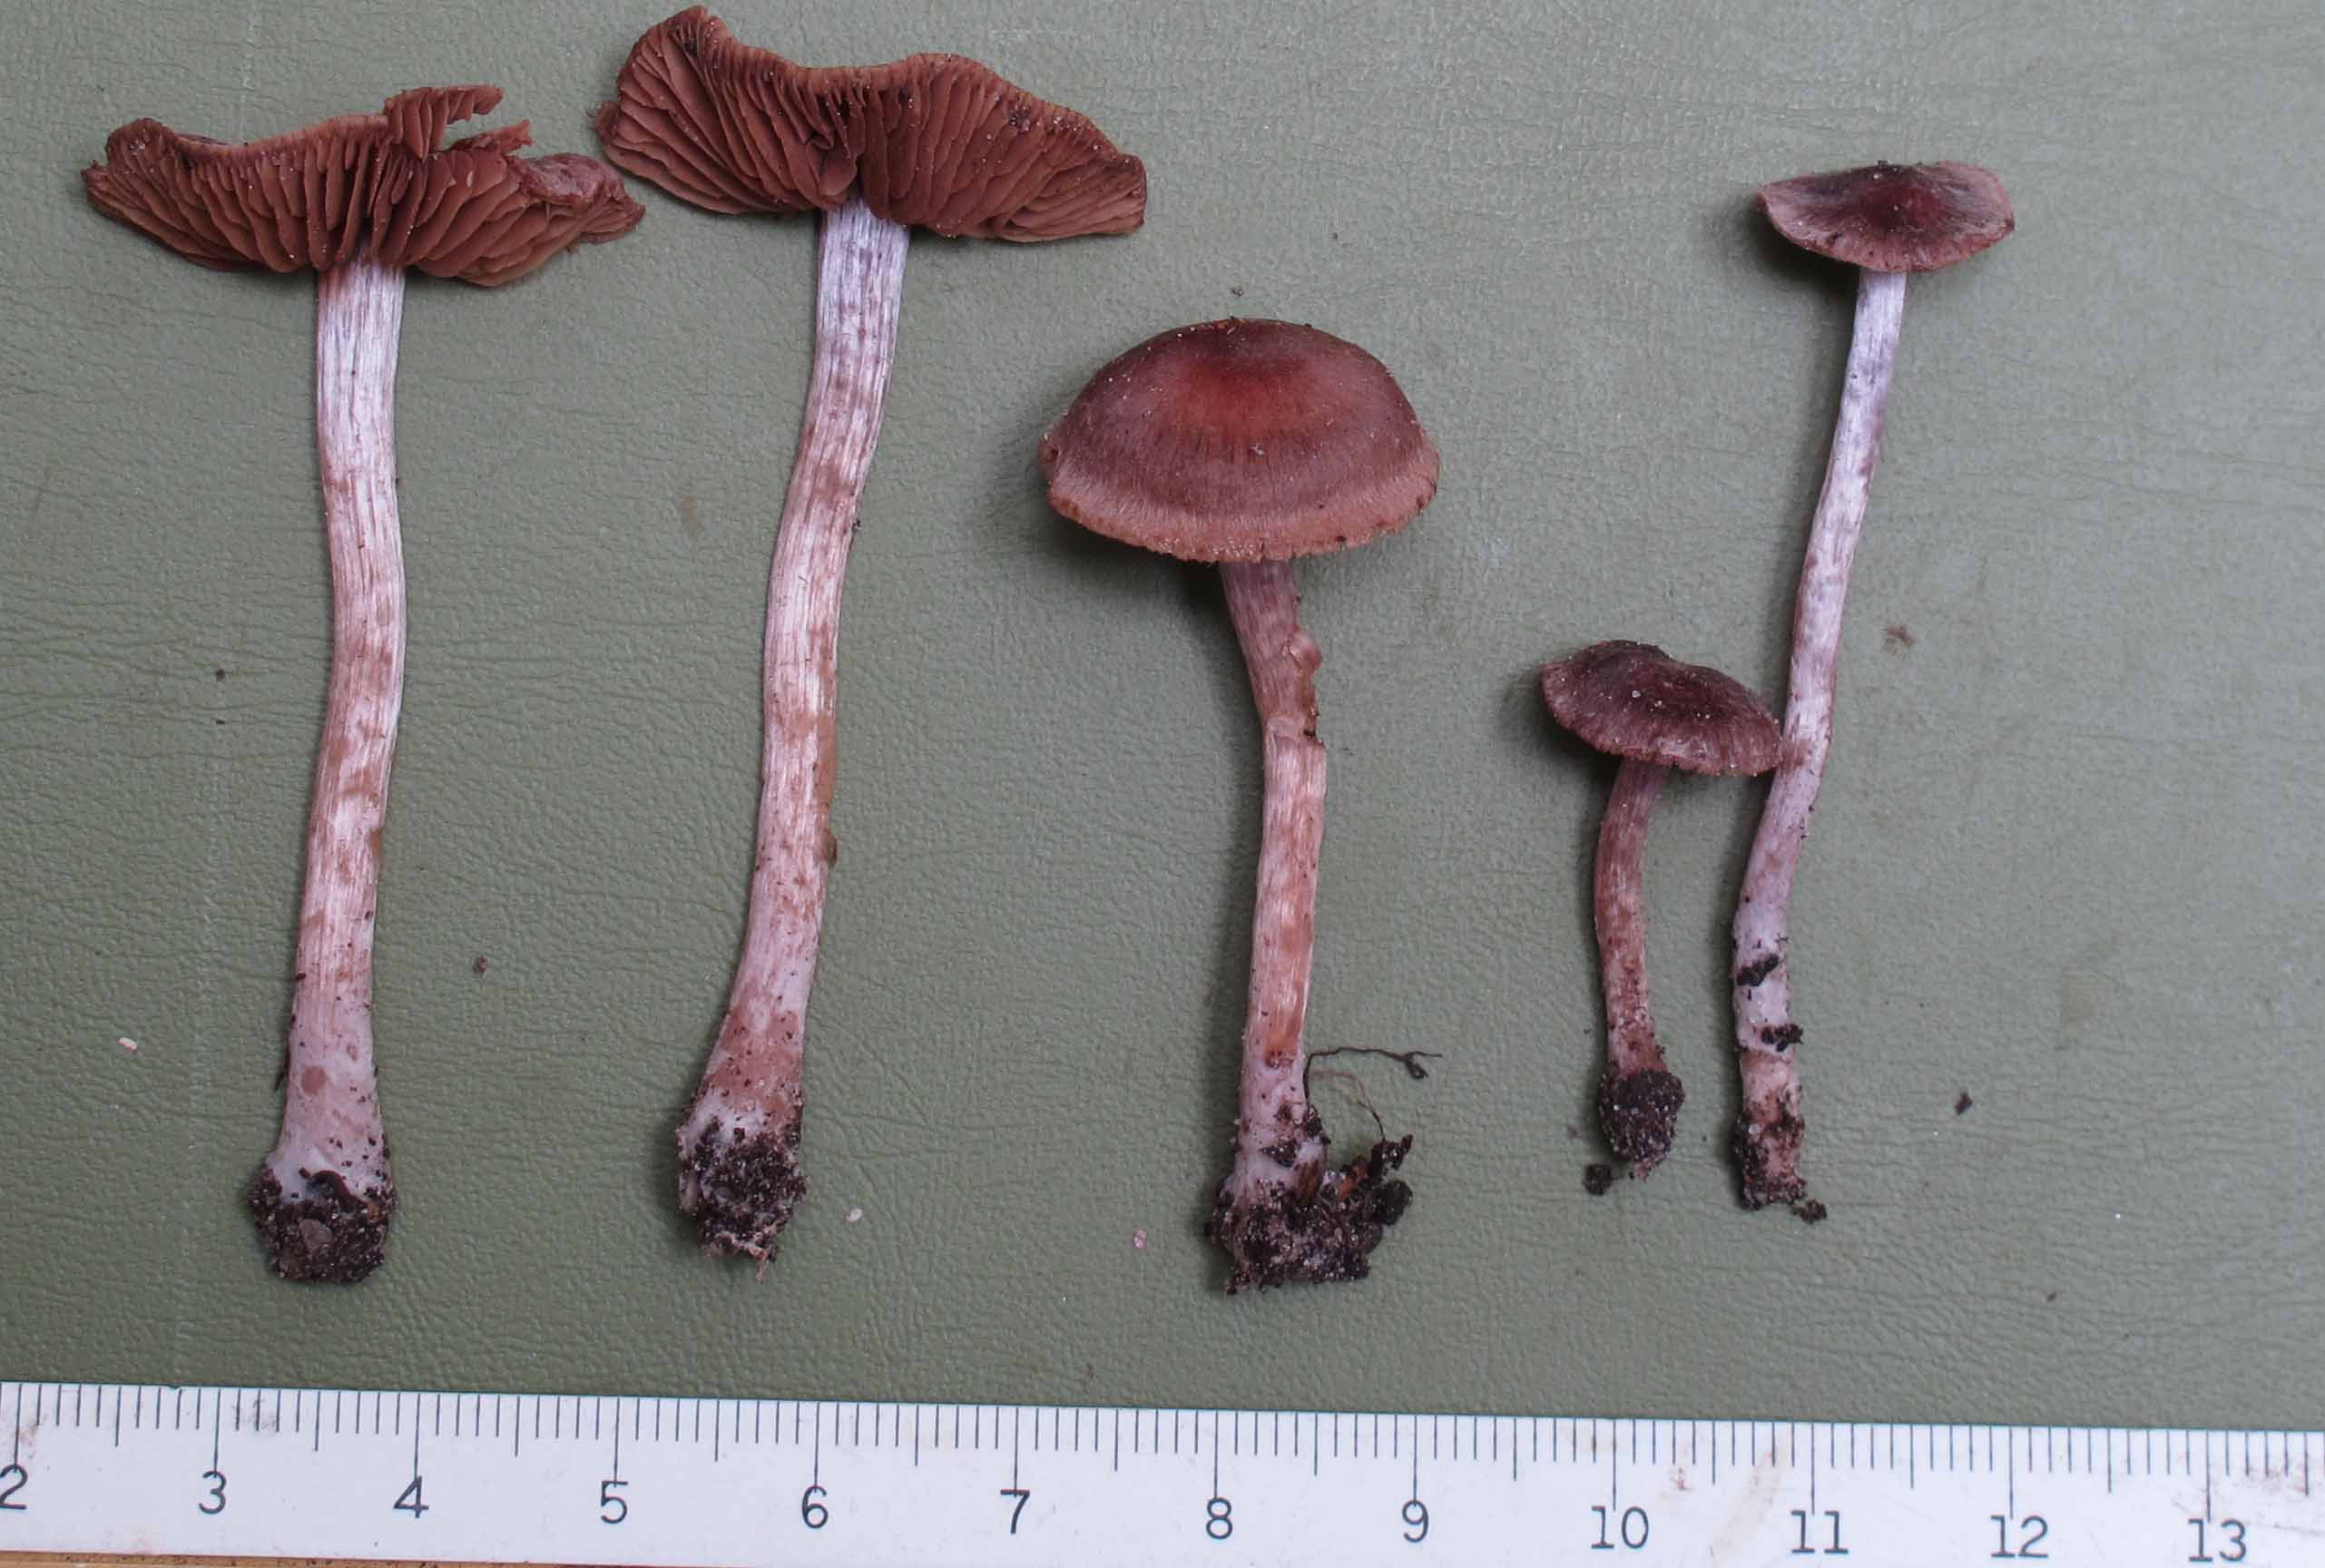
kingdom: Fungi
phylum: Basidiomycota
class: Agaricomycetes
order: Agaricales
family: Cortinariaceae
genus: Cortinarius
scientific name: Cortinarius
